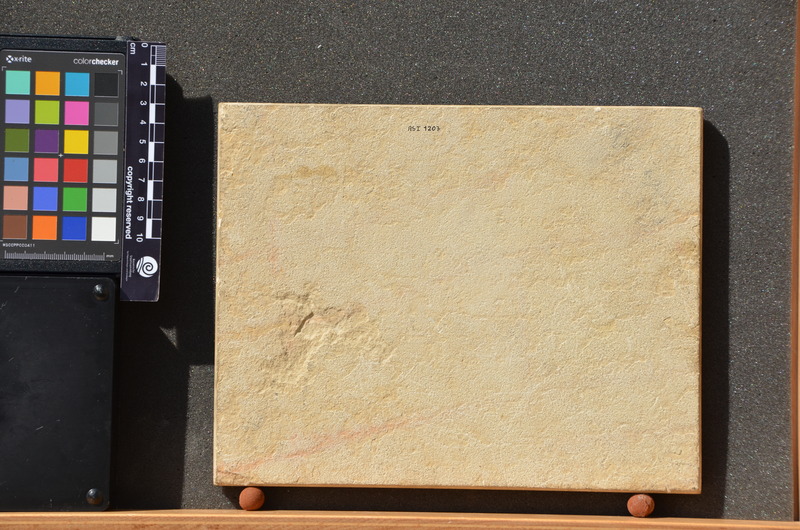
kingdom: Animalia
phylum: Chordata
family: Aspidorhynchidae
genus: Belonostomus
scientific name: Belonostomus tenuirostris
